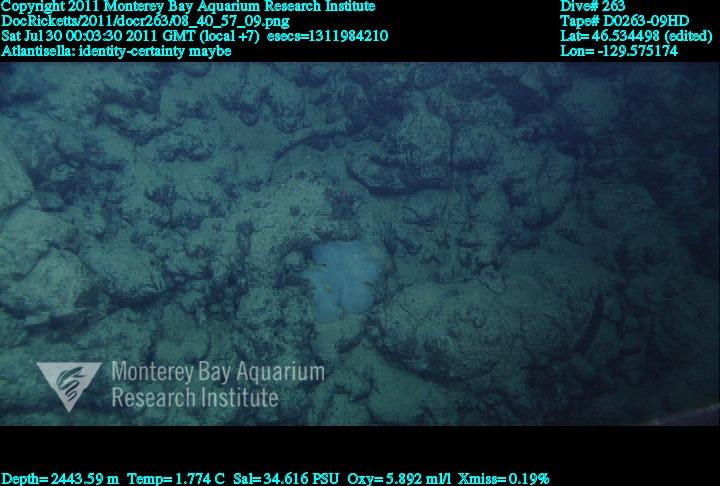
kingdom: Animalia
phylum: Porifera
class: Hexactinellida
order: Lyssacinosida
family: Euplectellidae
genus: Atlantisella
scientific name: Atlantisella
